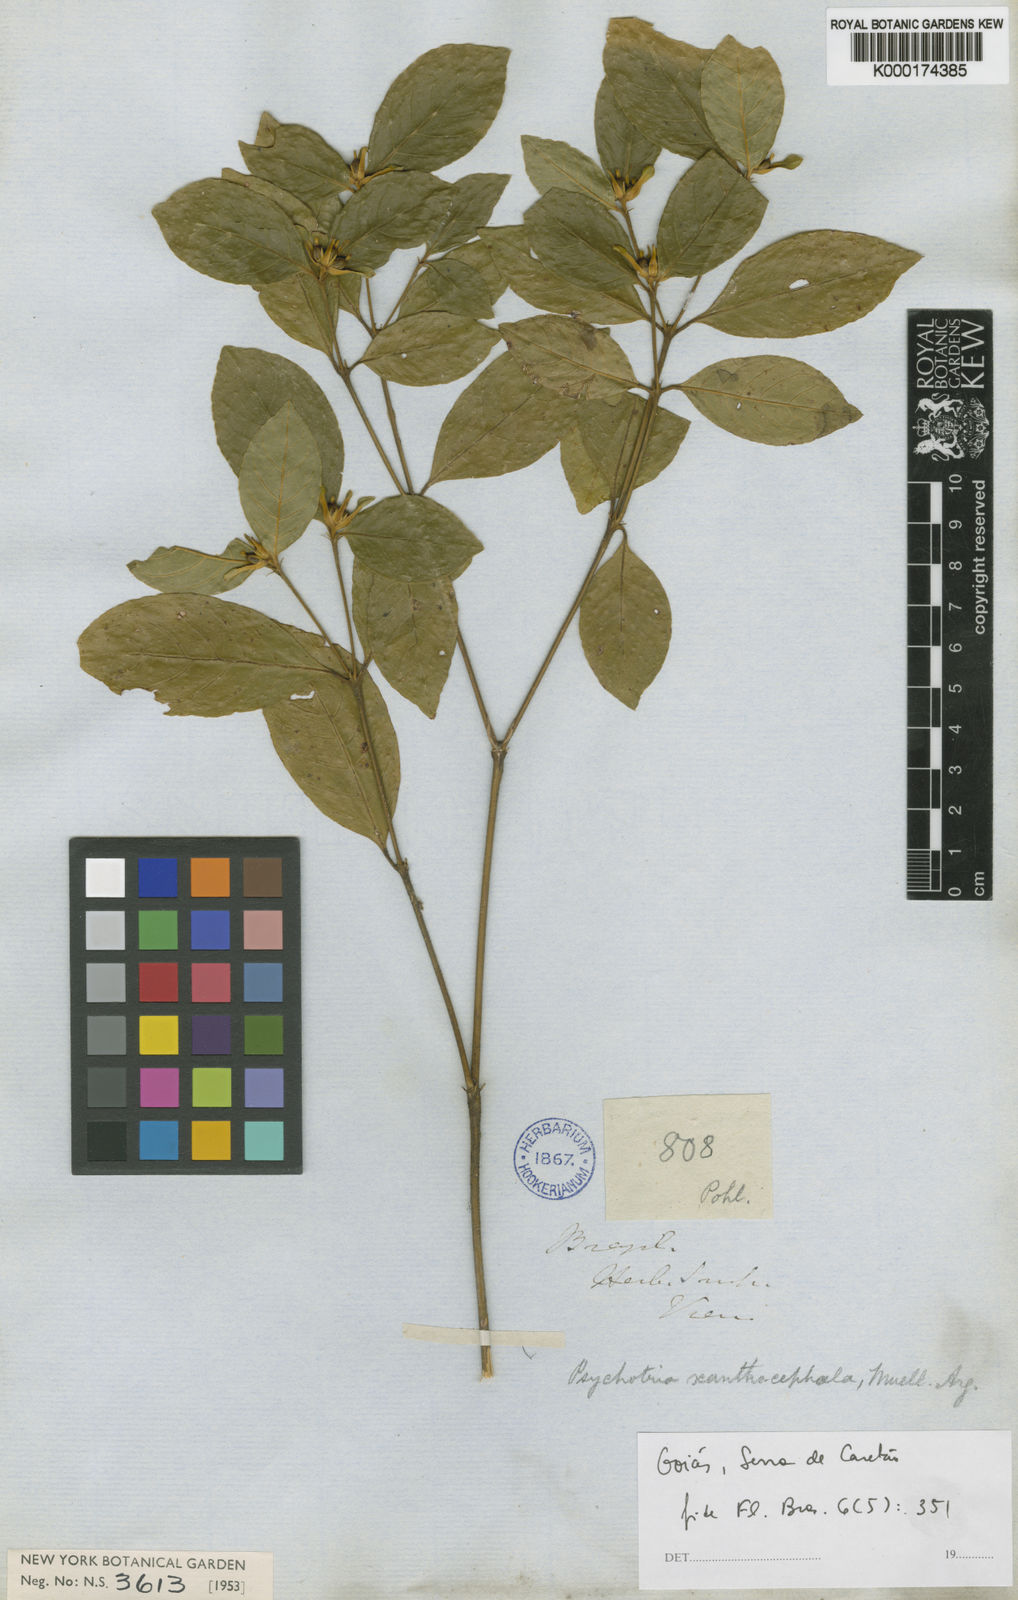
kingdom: Plantae
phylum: Tracheophyta
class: Magnoliopsida
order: Gentianales
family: Rubiaceae
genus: Psychotria
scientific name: Psychotria
